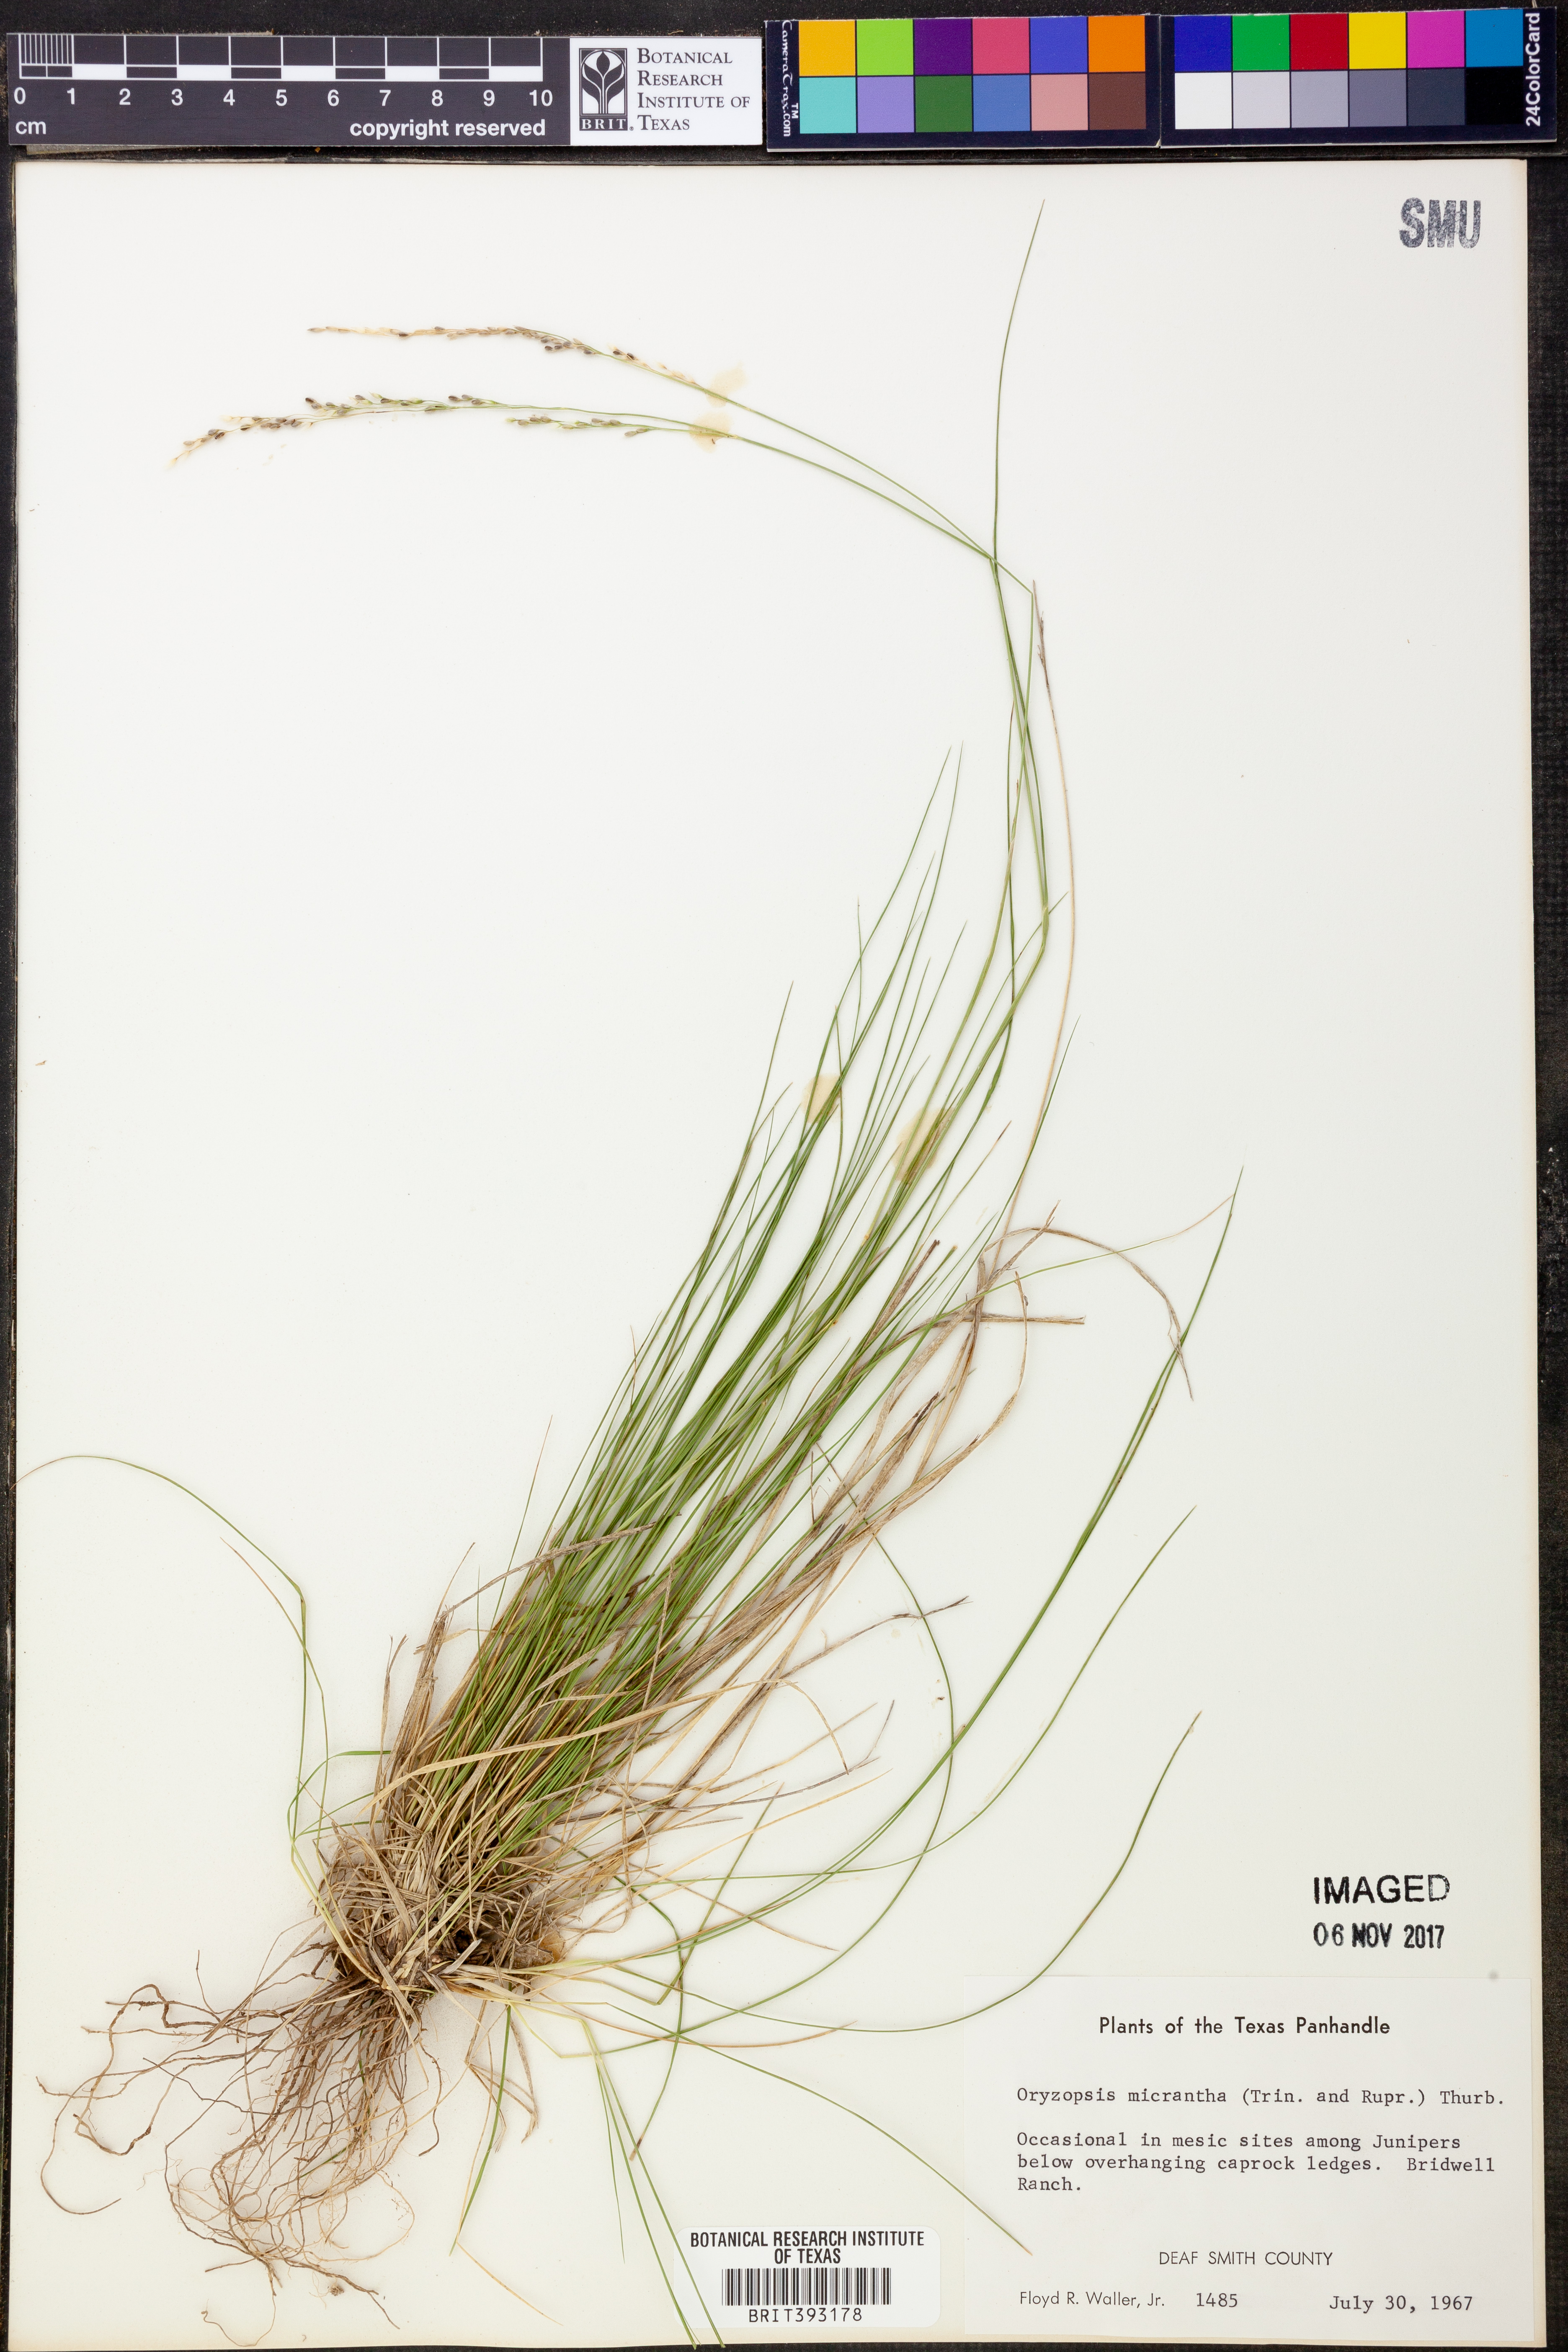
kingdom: Plantae
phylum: Tracheophyta
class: Liliopsida
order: Poales
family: Poaceae
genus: Piptatheropsis
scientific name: Piptatheropsis micrantha
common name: Little-seed mountain ricegrass
